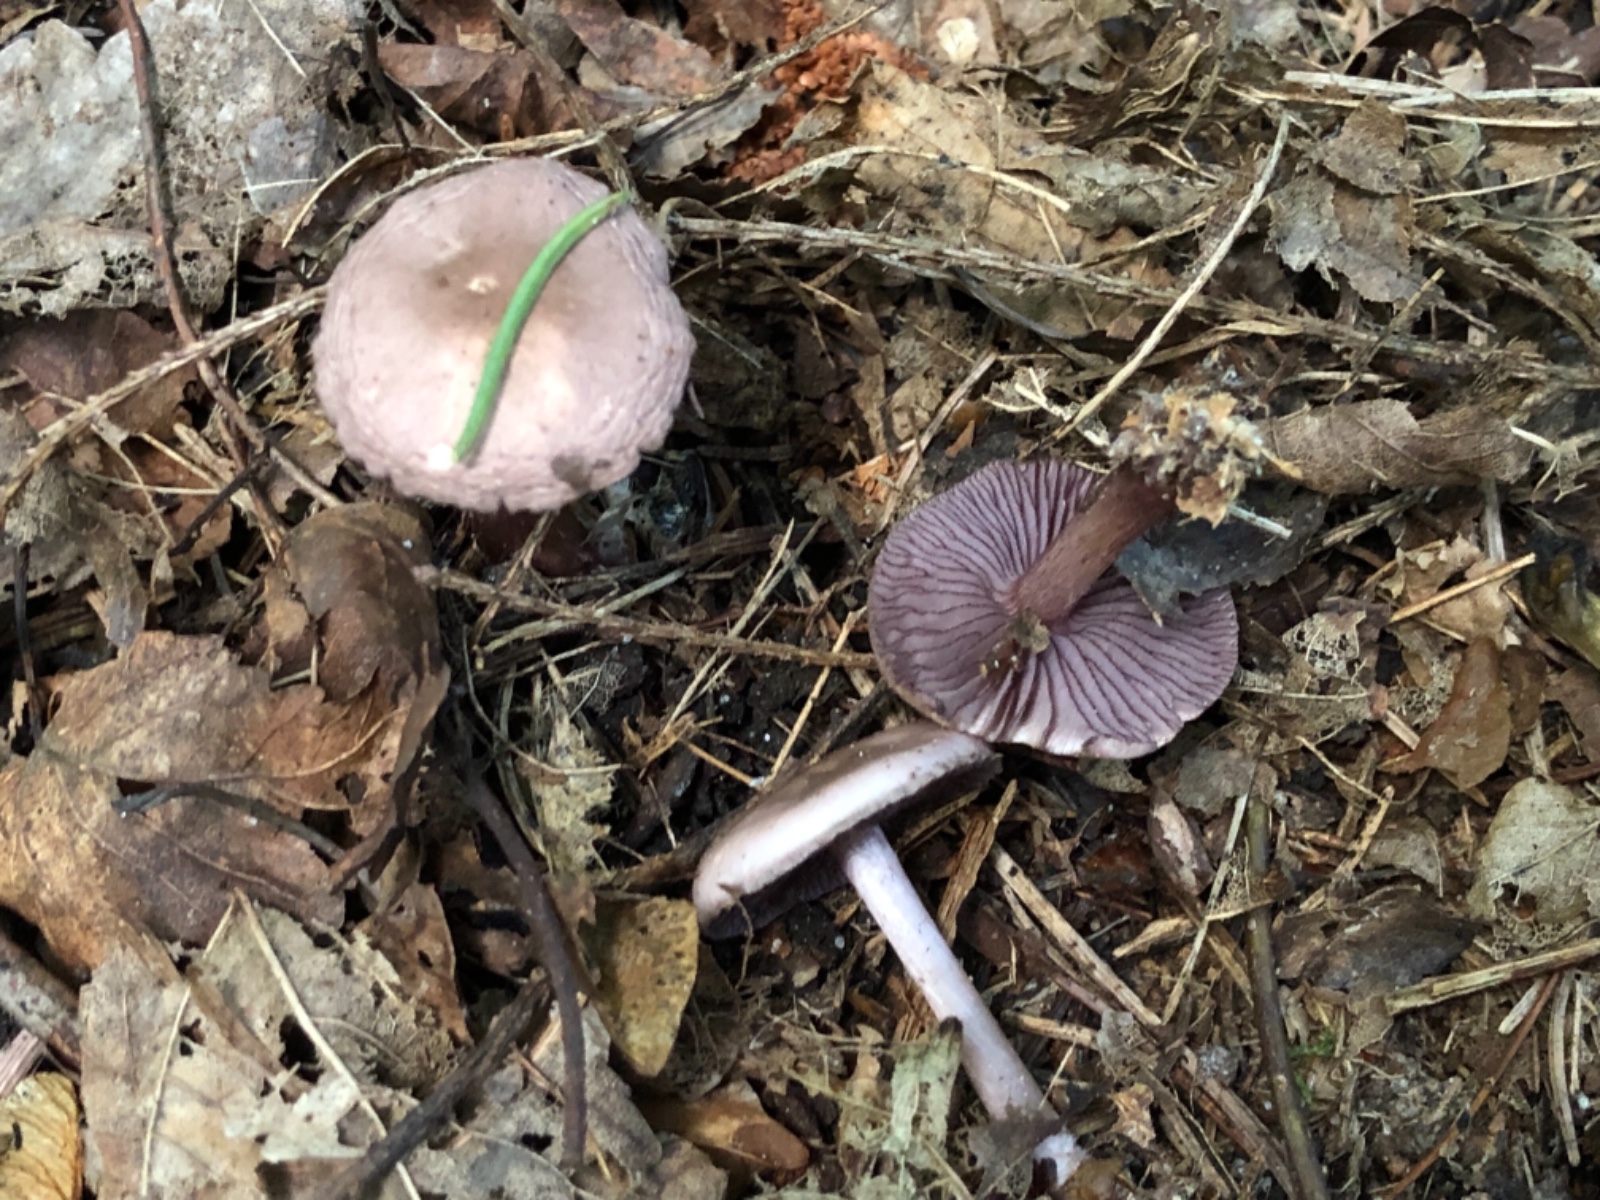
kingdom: Fungi
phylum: Basidiomycota
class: Agaricomycetes
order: Agaricales
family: Mycenaceae
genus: Mycena
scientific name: Mycena pelianthina
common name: mørkbladet huesvamp
